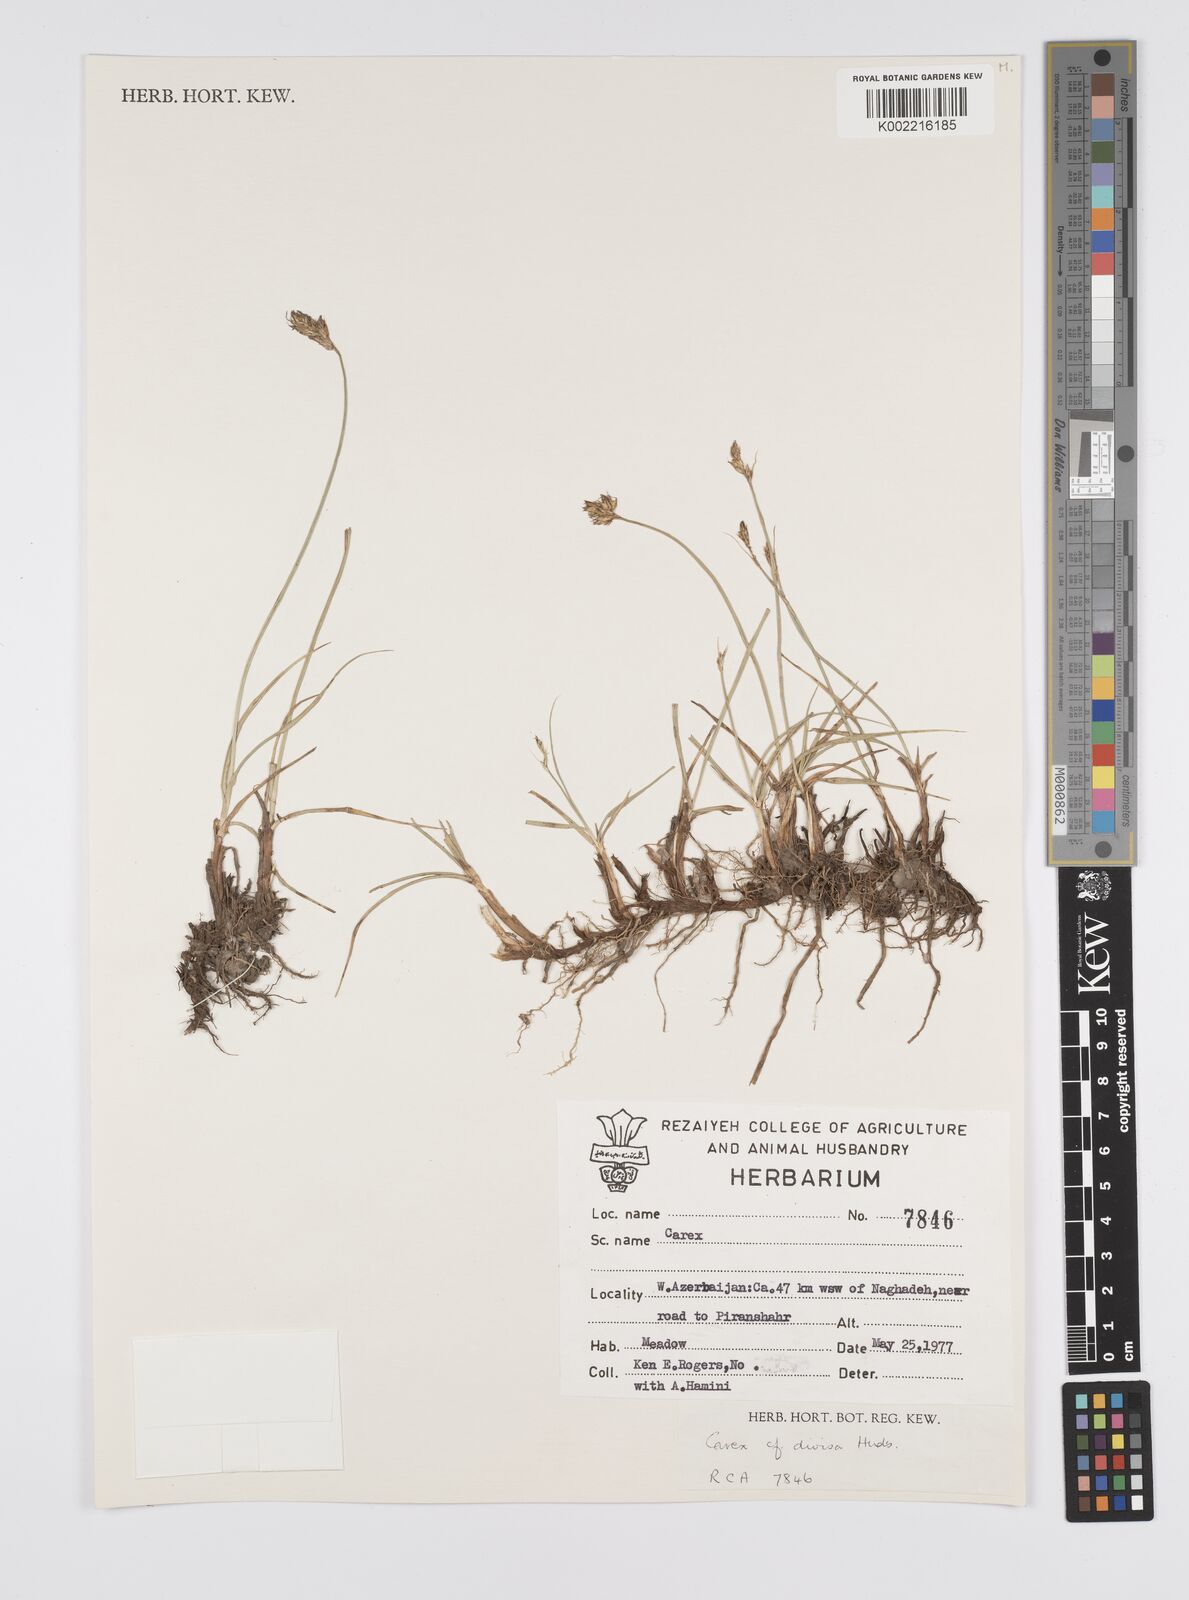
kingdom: Plantae
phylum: Tracheophyta
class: Liliopsida
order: Poales
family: Cyperaceae
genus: Carex
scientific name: Carex divisa
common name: Divided sedge
